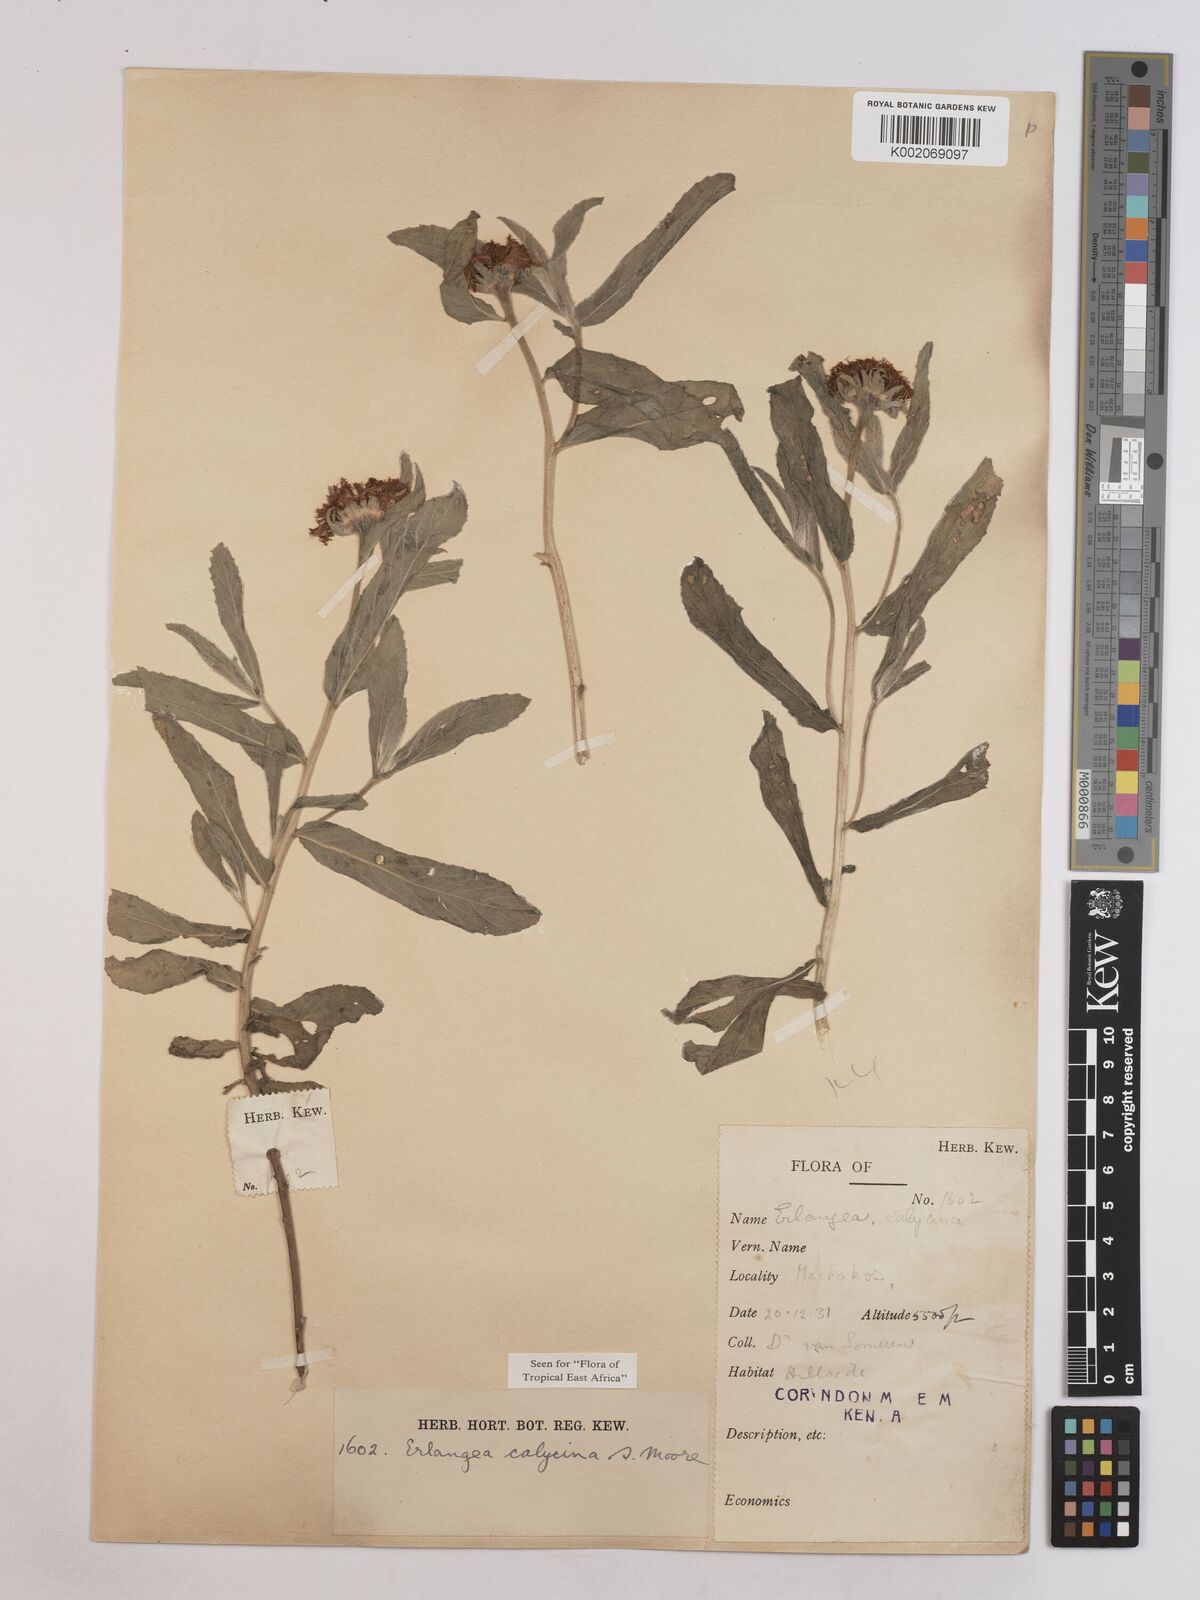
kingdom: Plantae
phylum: Tracheophyta
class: Magnoliopsida
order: Asterales
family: Asteraceae
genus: Erlangea
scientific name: Erlangea calycina
